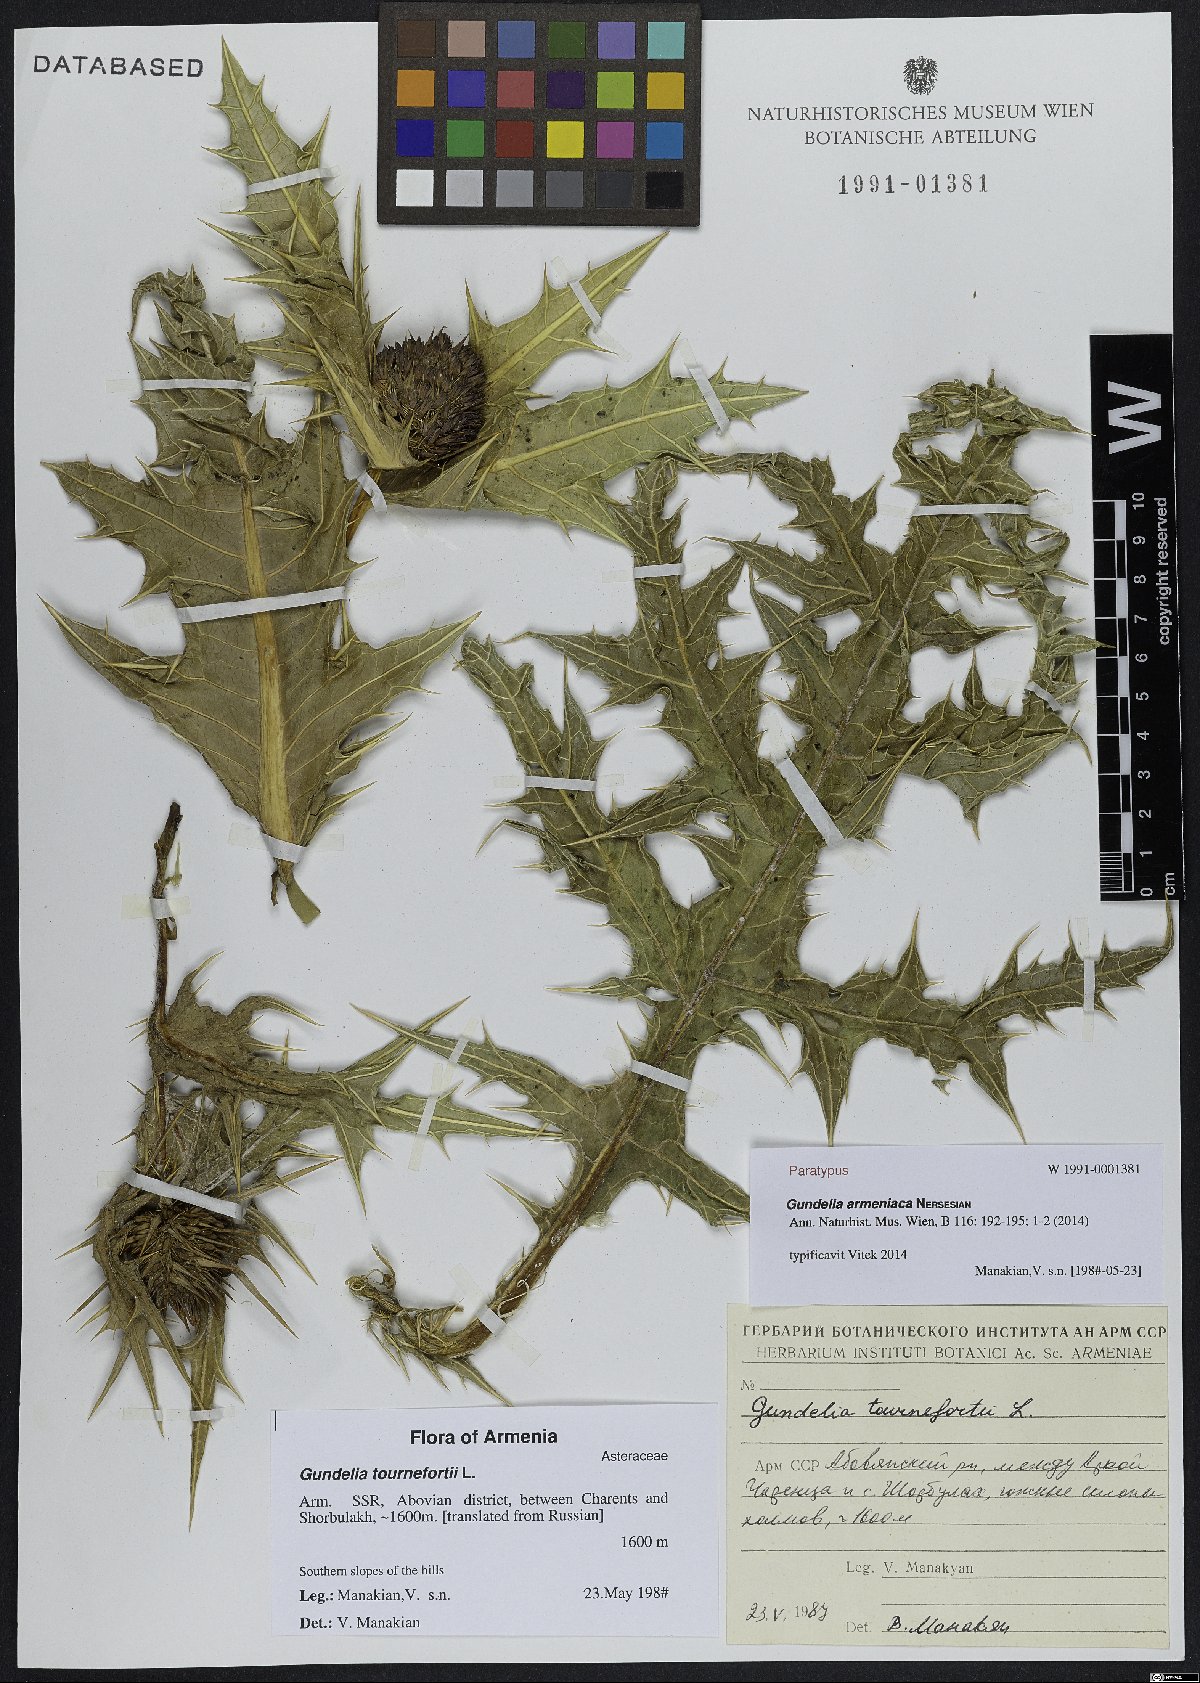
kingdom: Plantae
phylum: Tracheophyta
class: Magnoliopsida
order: Asterales
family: Asteraceae
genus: Gundelia
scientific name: Gundelia armeniaca
